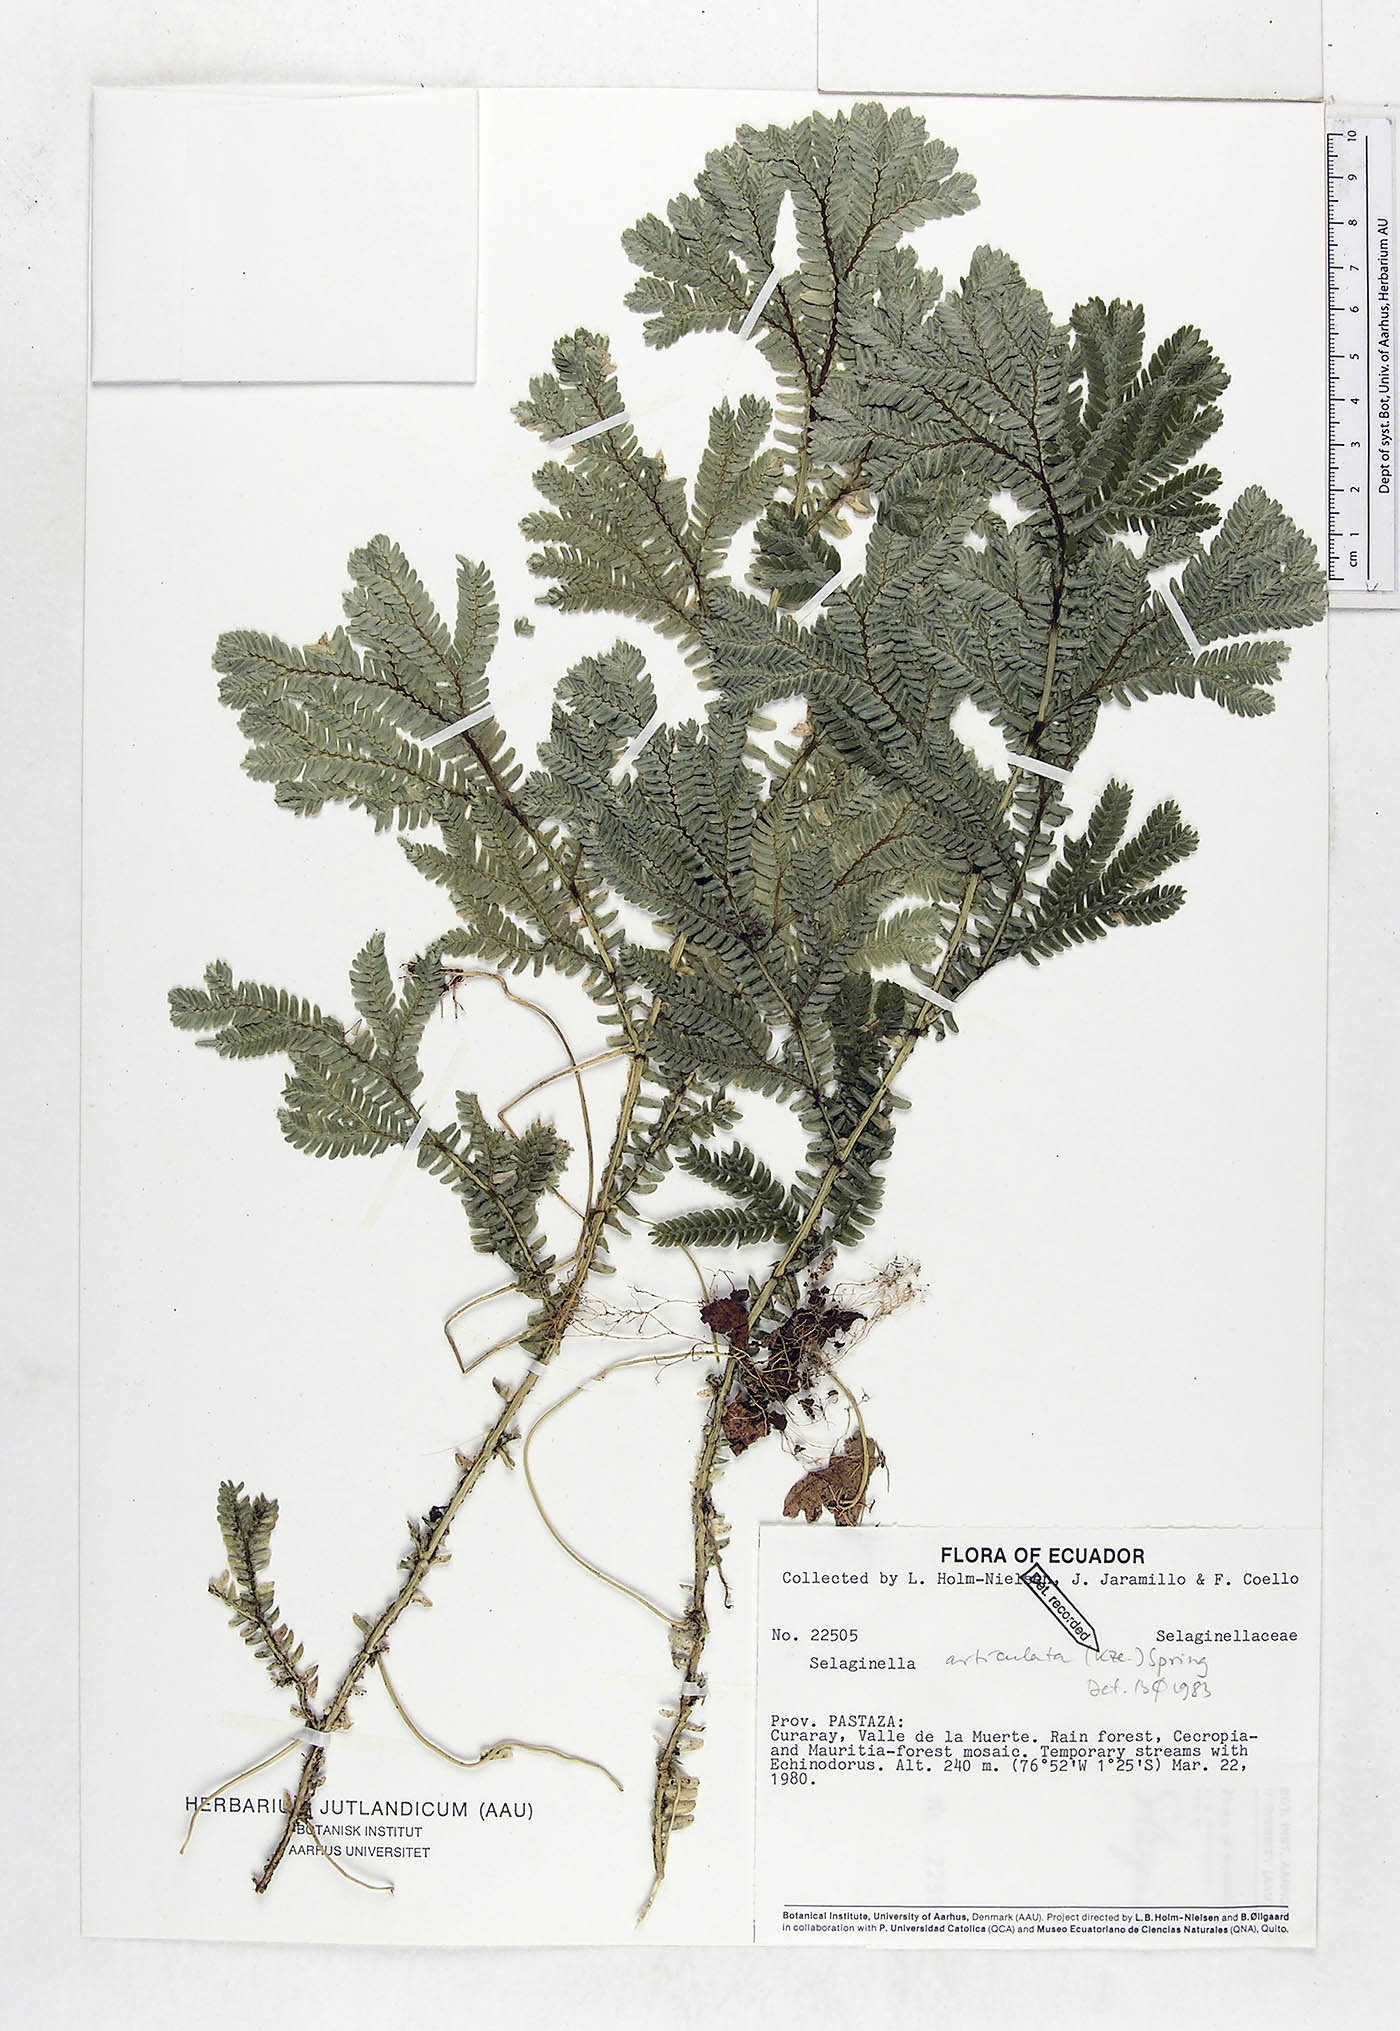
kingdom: Plantae
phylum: Tracheophyta
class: Lycopodiopsida
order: Selaginellales
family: Selaginellaceae
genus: Selaginella
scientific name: Selaginella articulata
